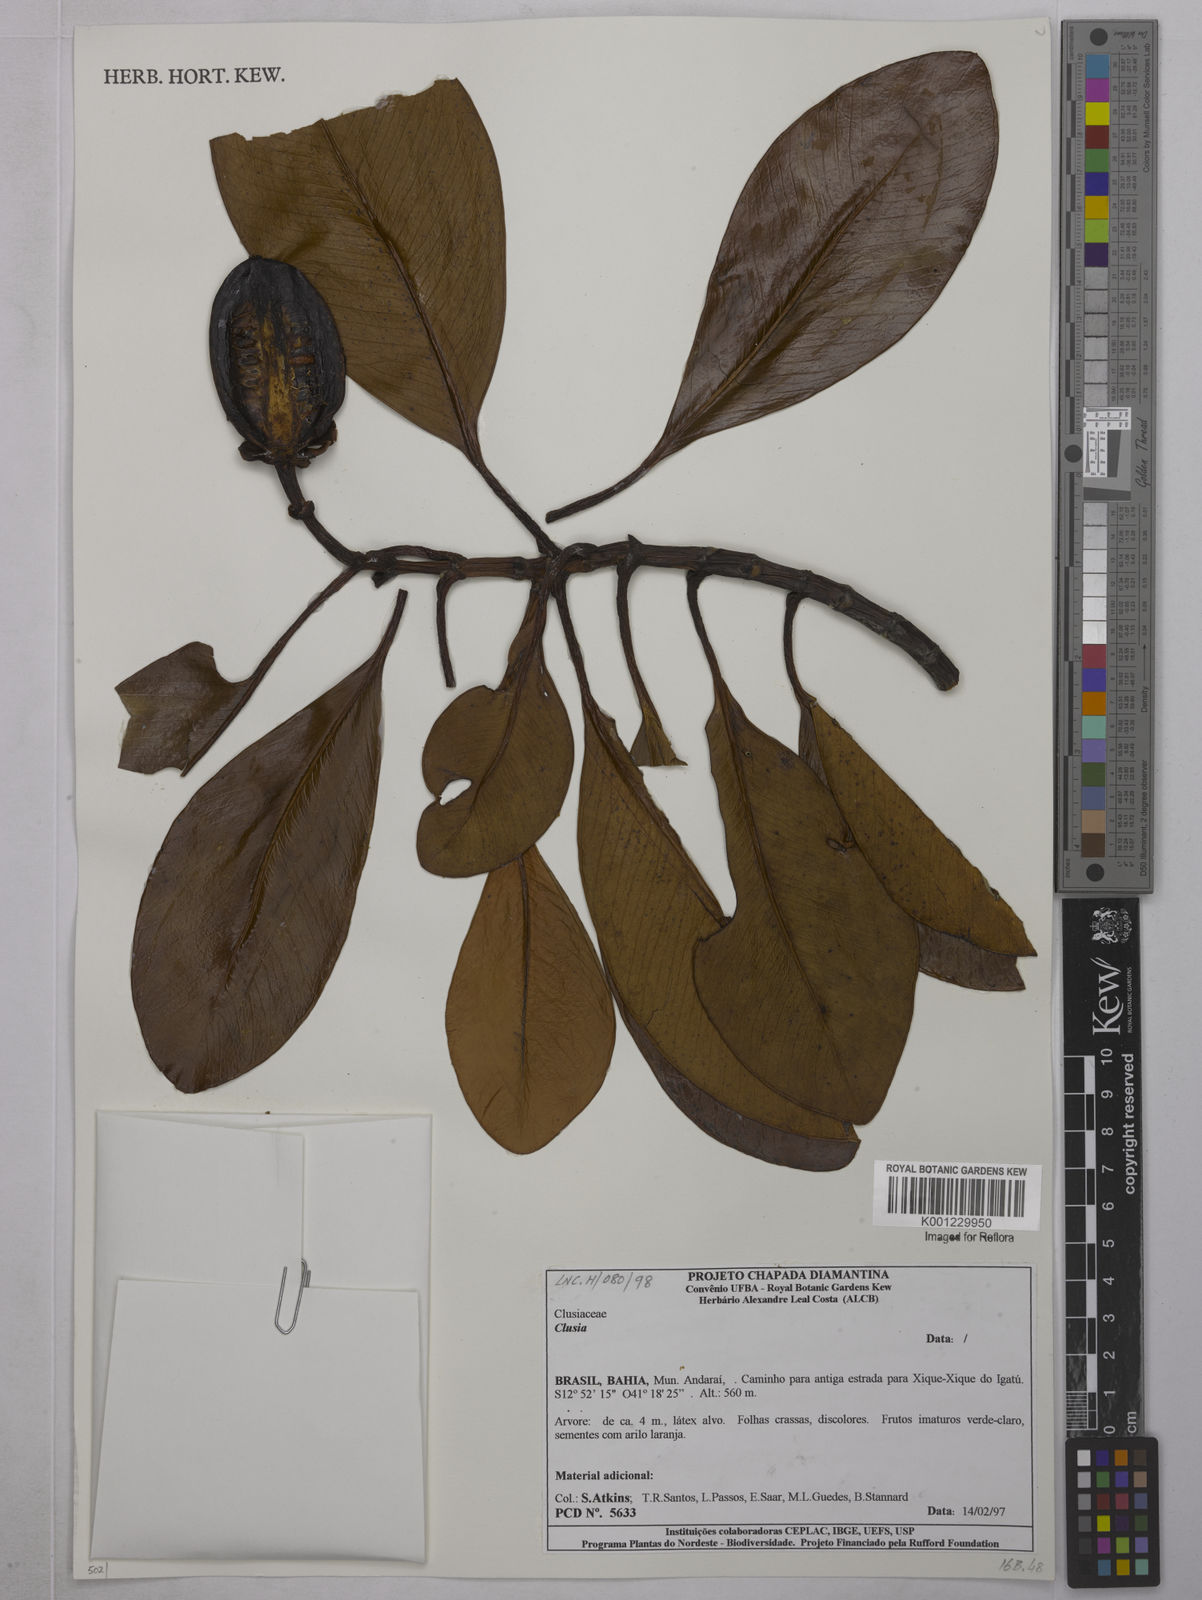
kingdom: Plantae
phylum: Tracheophyta
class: Magnoliopsida
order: Malpighiales
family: Clusiaceae
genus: Clusia
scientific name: Clusia
